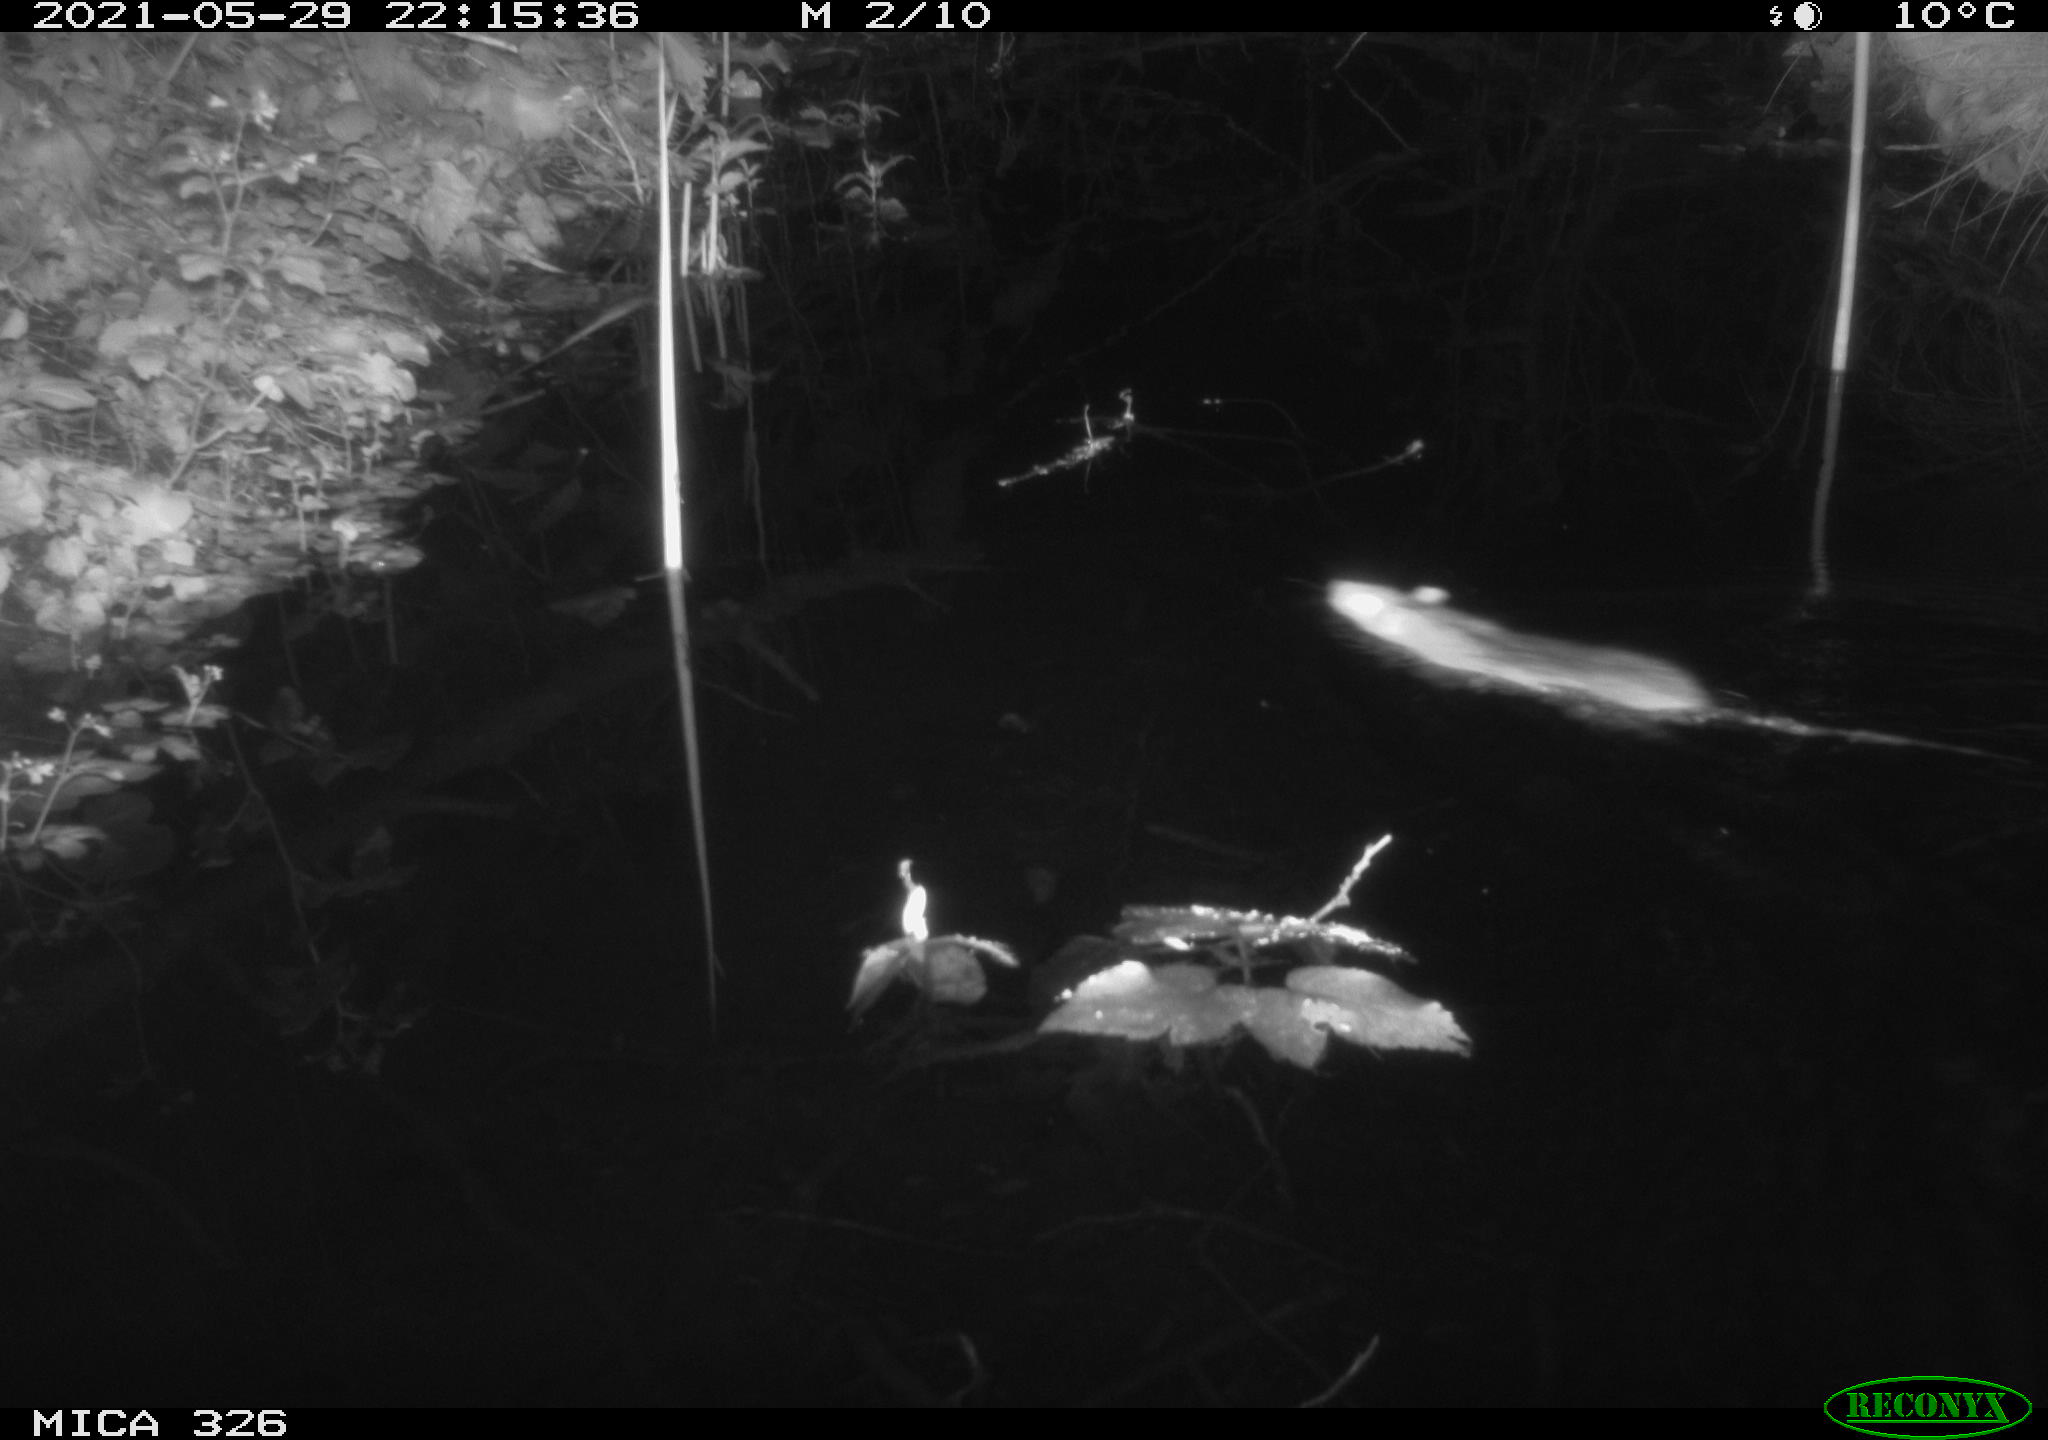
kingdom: Animalia
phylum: Chordata
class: Mammalia
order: Rodentia
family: Muridae
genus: Rattus
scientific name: Rattus norvegicus
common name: Brown rat
